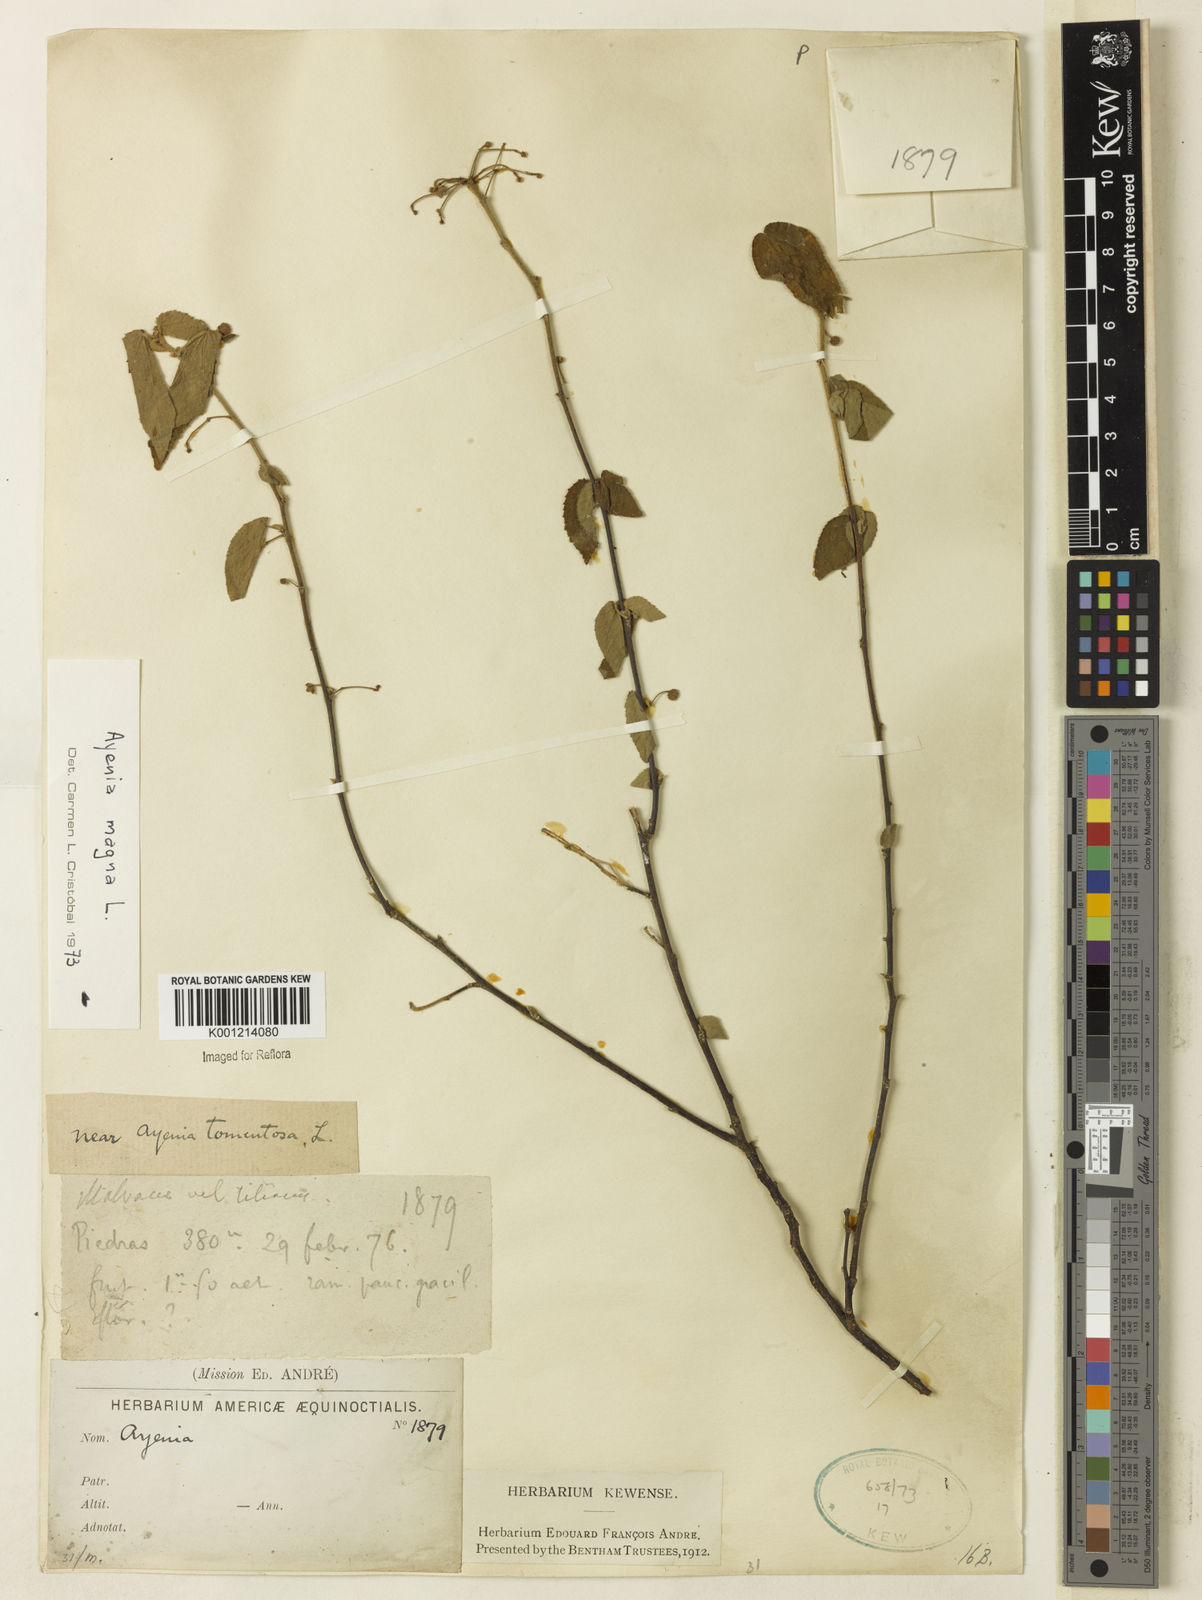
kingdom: Plantae
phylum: Tracheophyta
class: Magnoliopsida
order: Malvales
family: Malvaceae
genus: Ayenia
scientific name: Ayenia magna
